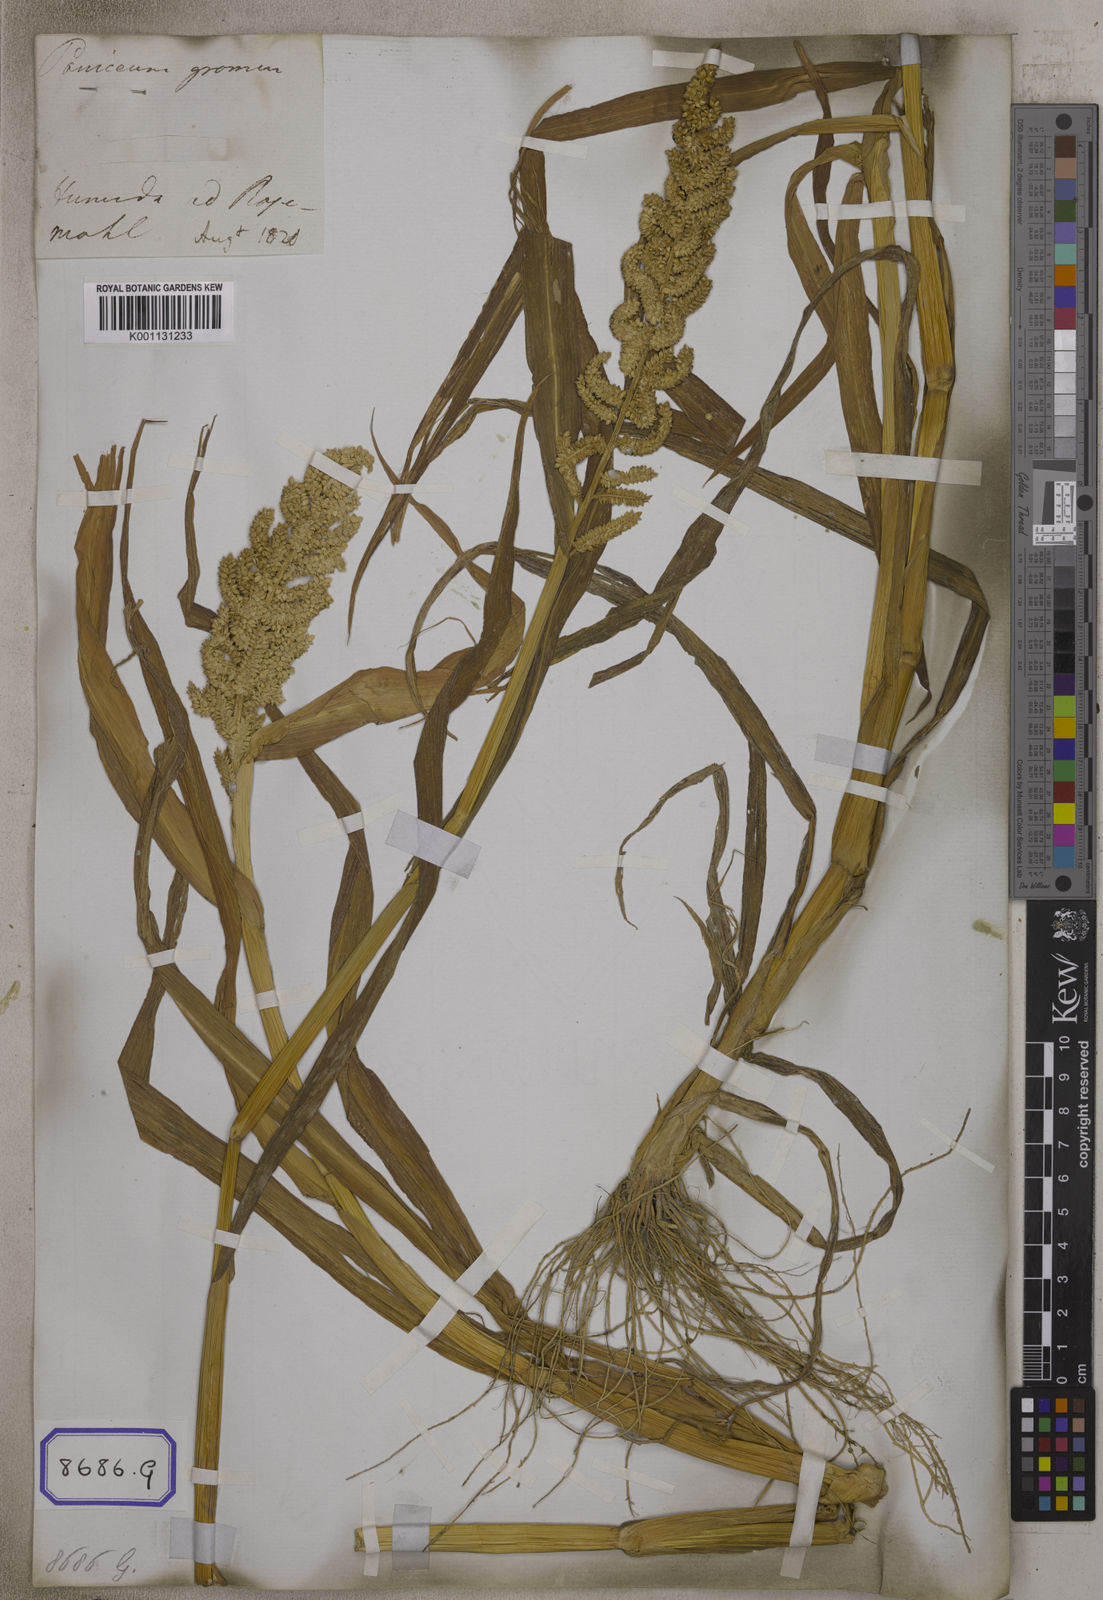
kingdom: Plantae
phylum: Tracheophyta
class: Liliopsida
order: Poales
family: Poaceae
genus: Panicum
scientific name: Panicum
